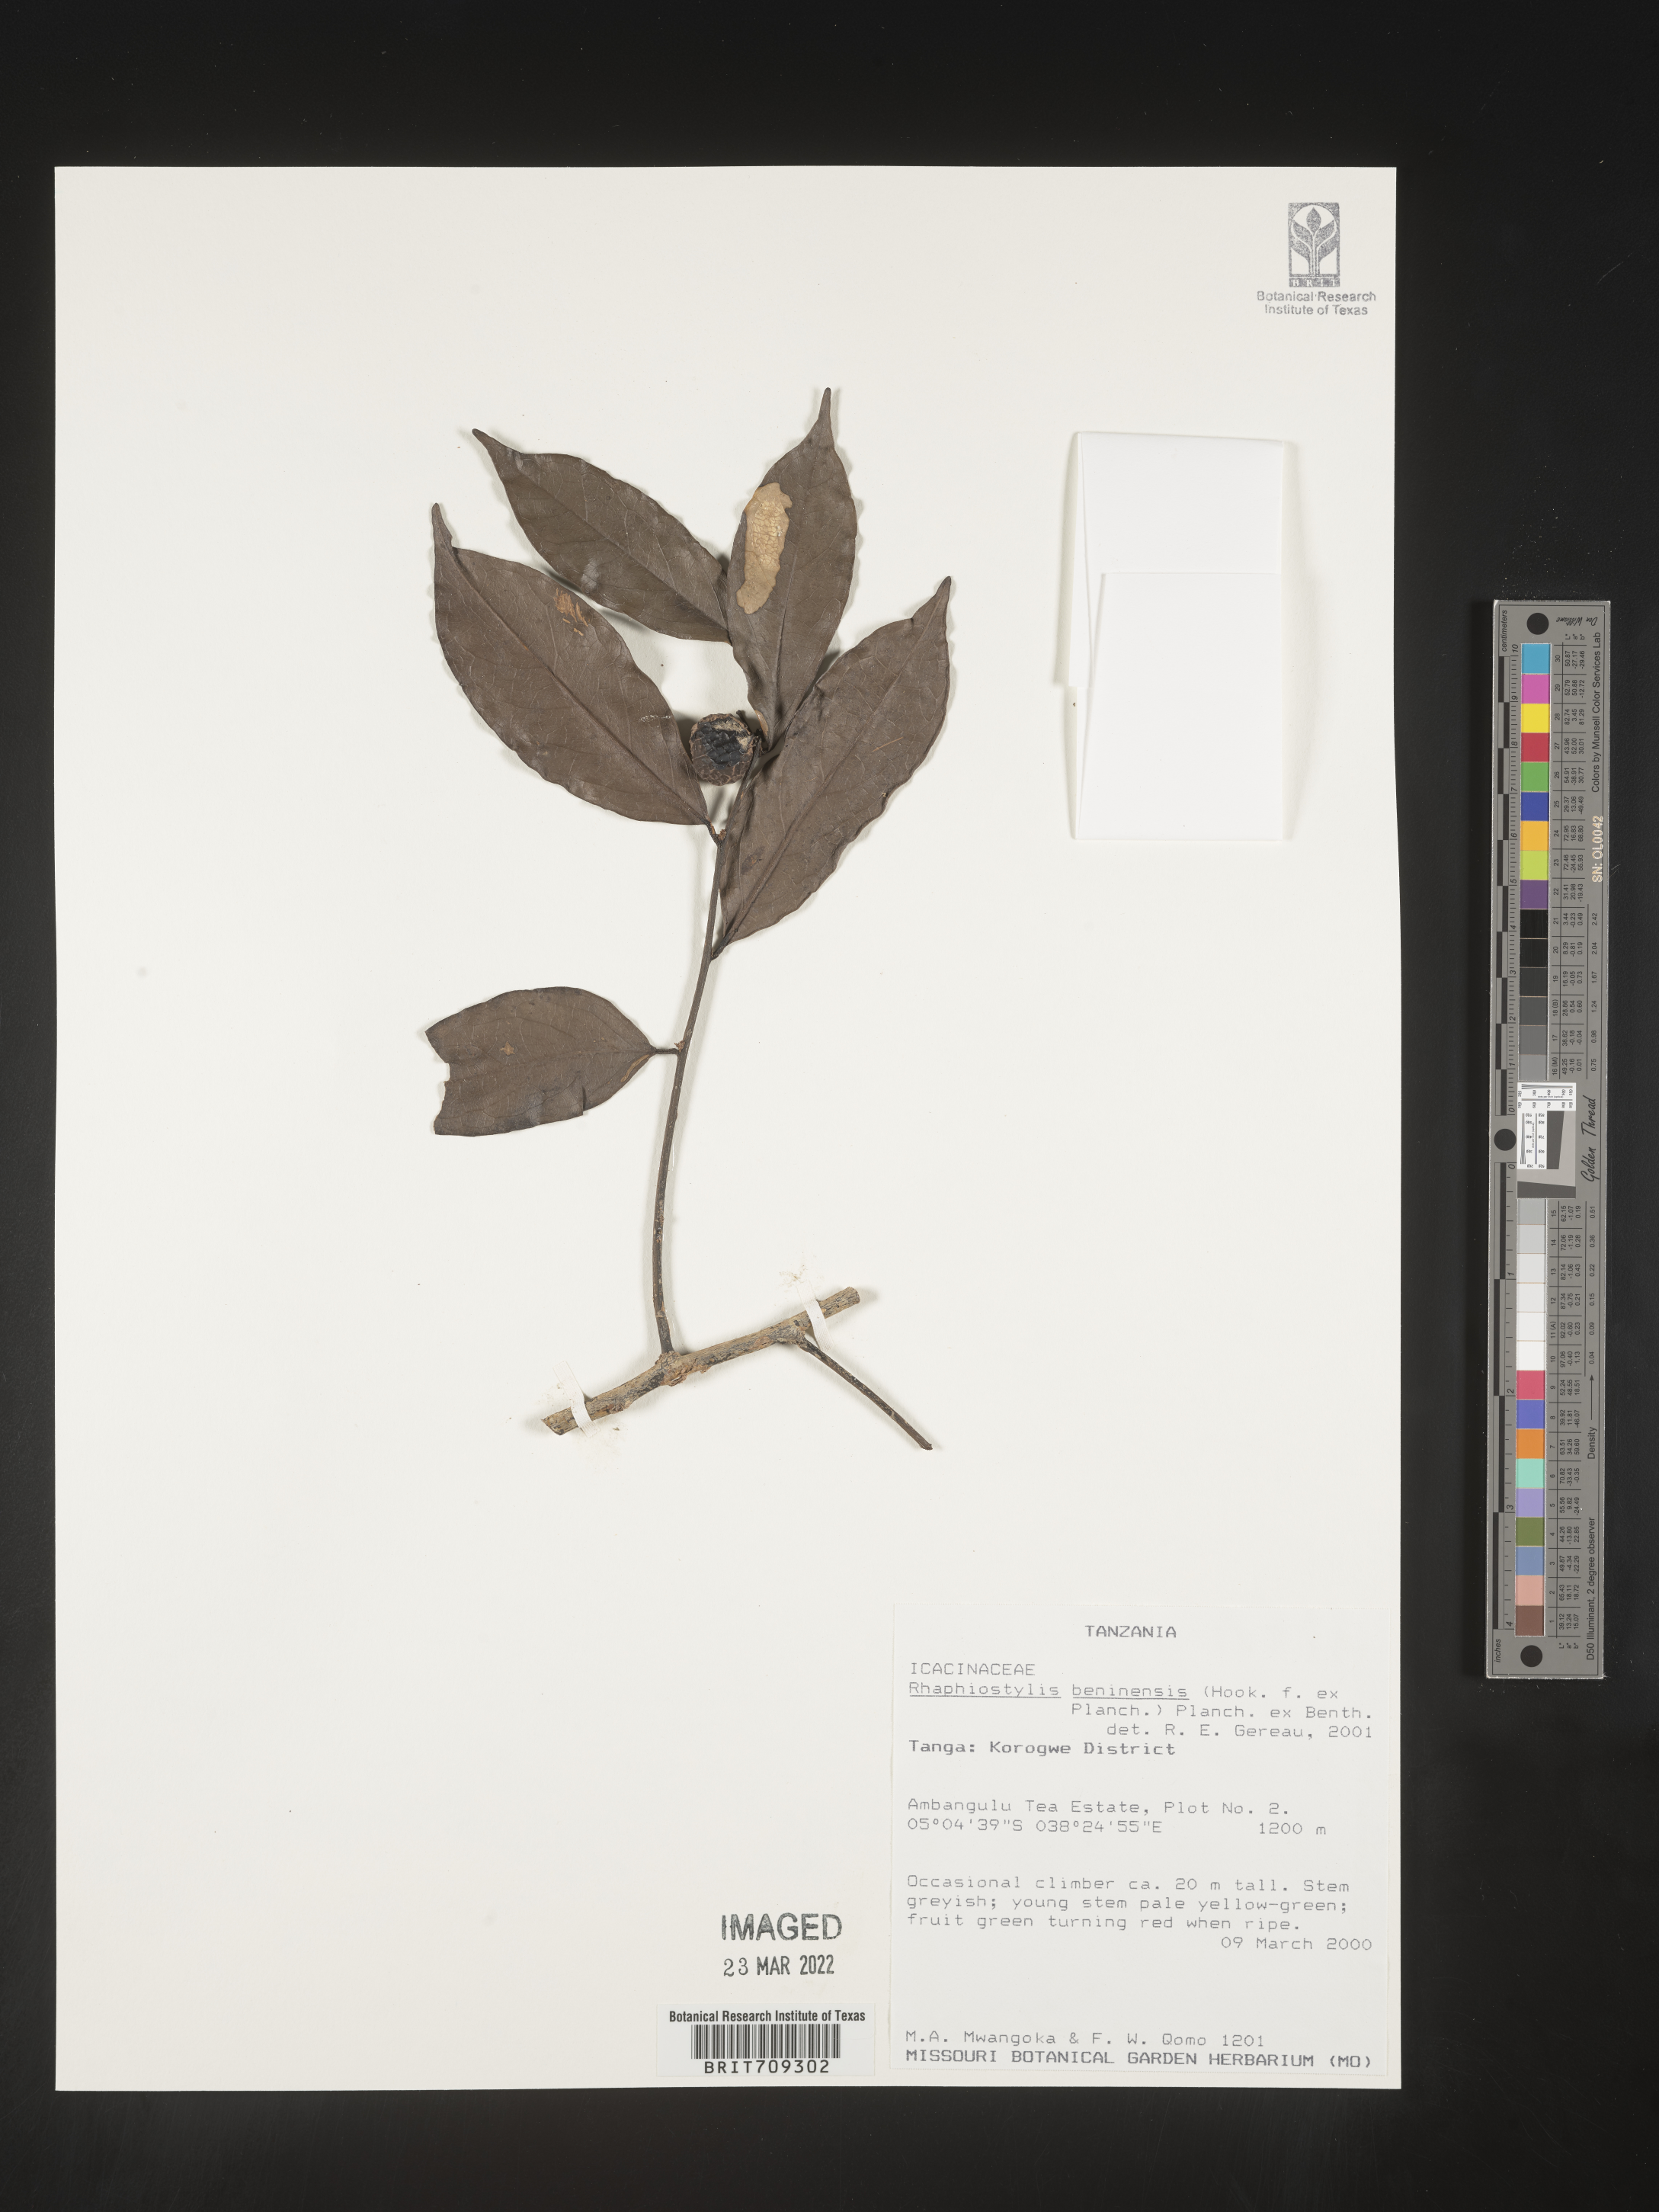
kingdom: Plantae
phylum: Tracheophyta
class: Magnoliopsida
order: Metteniusales
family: Metteniusaceae
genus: Rhaphiostylis
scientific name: Rhaphiostylis
